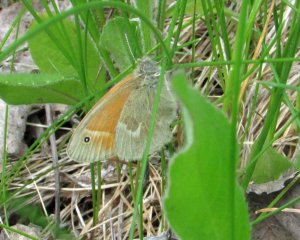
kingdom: Animalia
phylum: Arthropoda
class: Insecta
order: Lepidoptera
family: Nymphalidae
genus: Coenonympha
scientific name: Coenonympha tullia
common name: Large Heath
